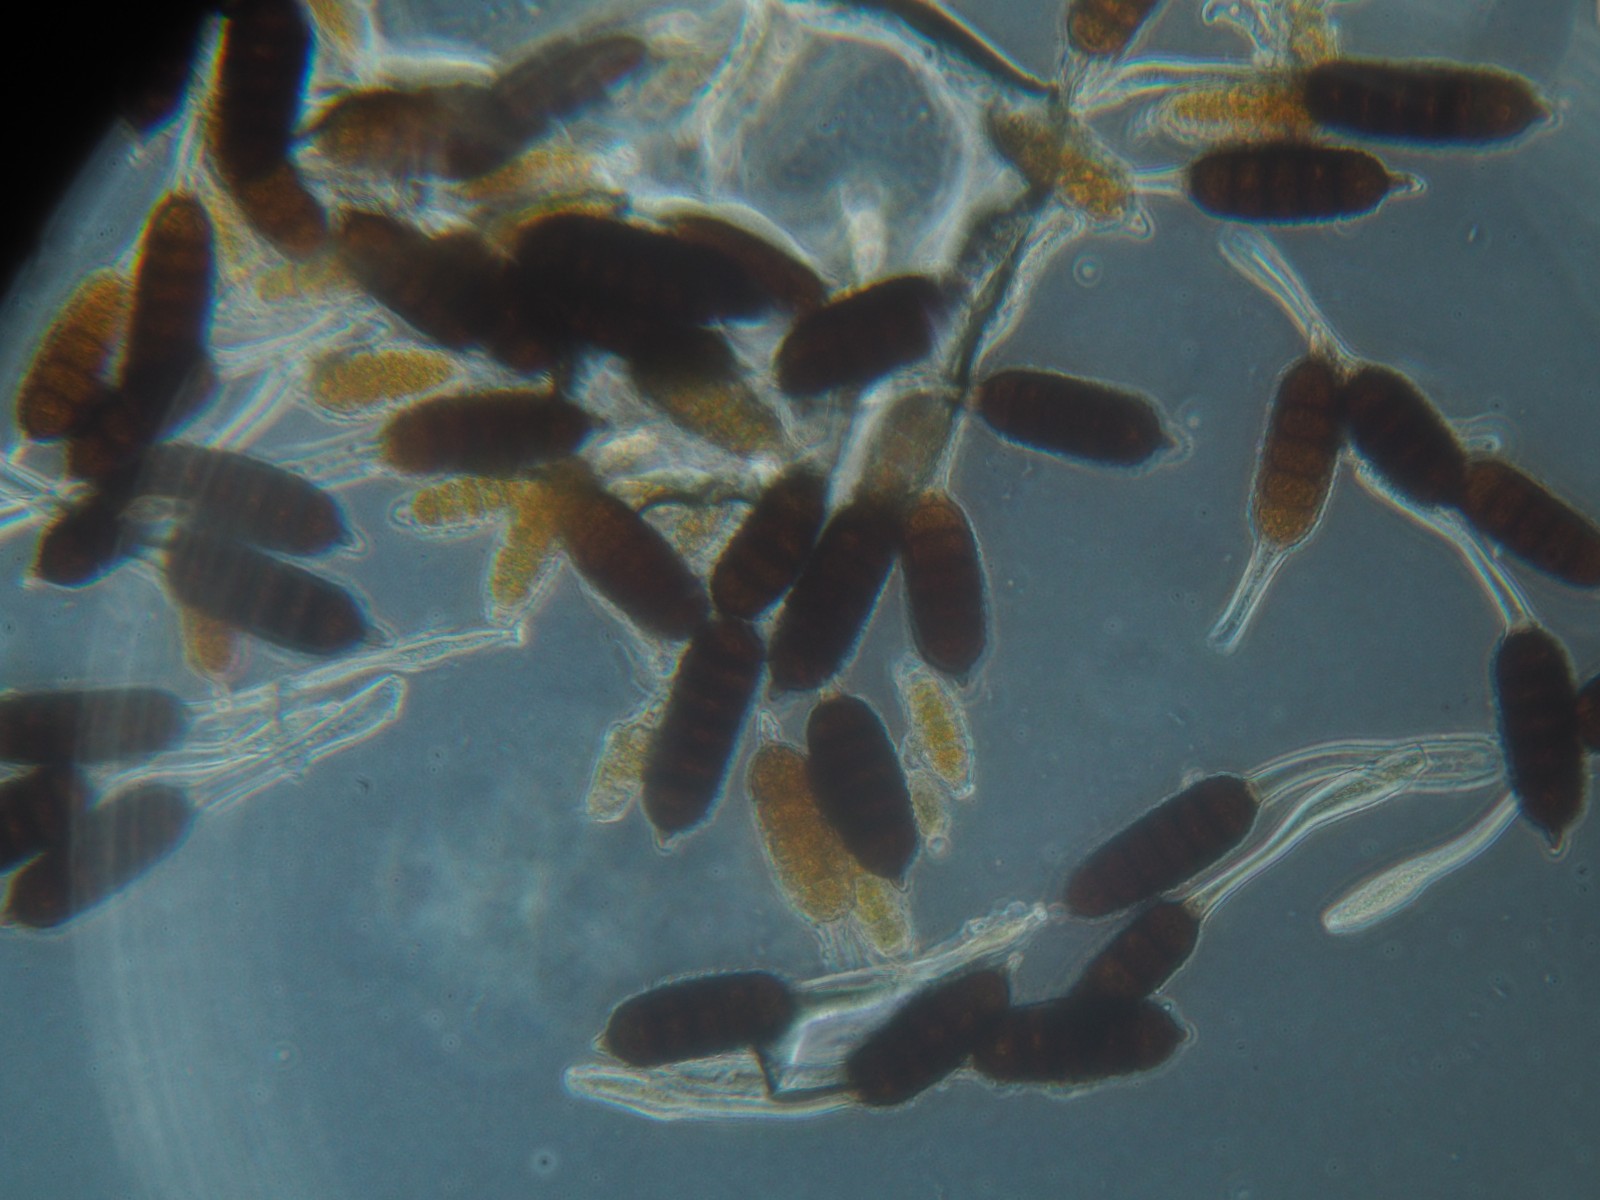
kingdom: Fungi
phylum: Basidiomycota
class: Pucciniomycetes
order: Pucciniales
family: Phragmidiaceae
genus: Phragmidium
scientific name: Phragmidium violaceum
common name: violet flercellerust
